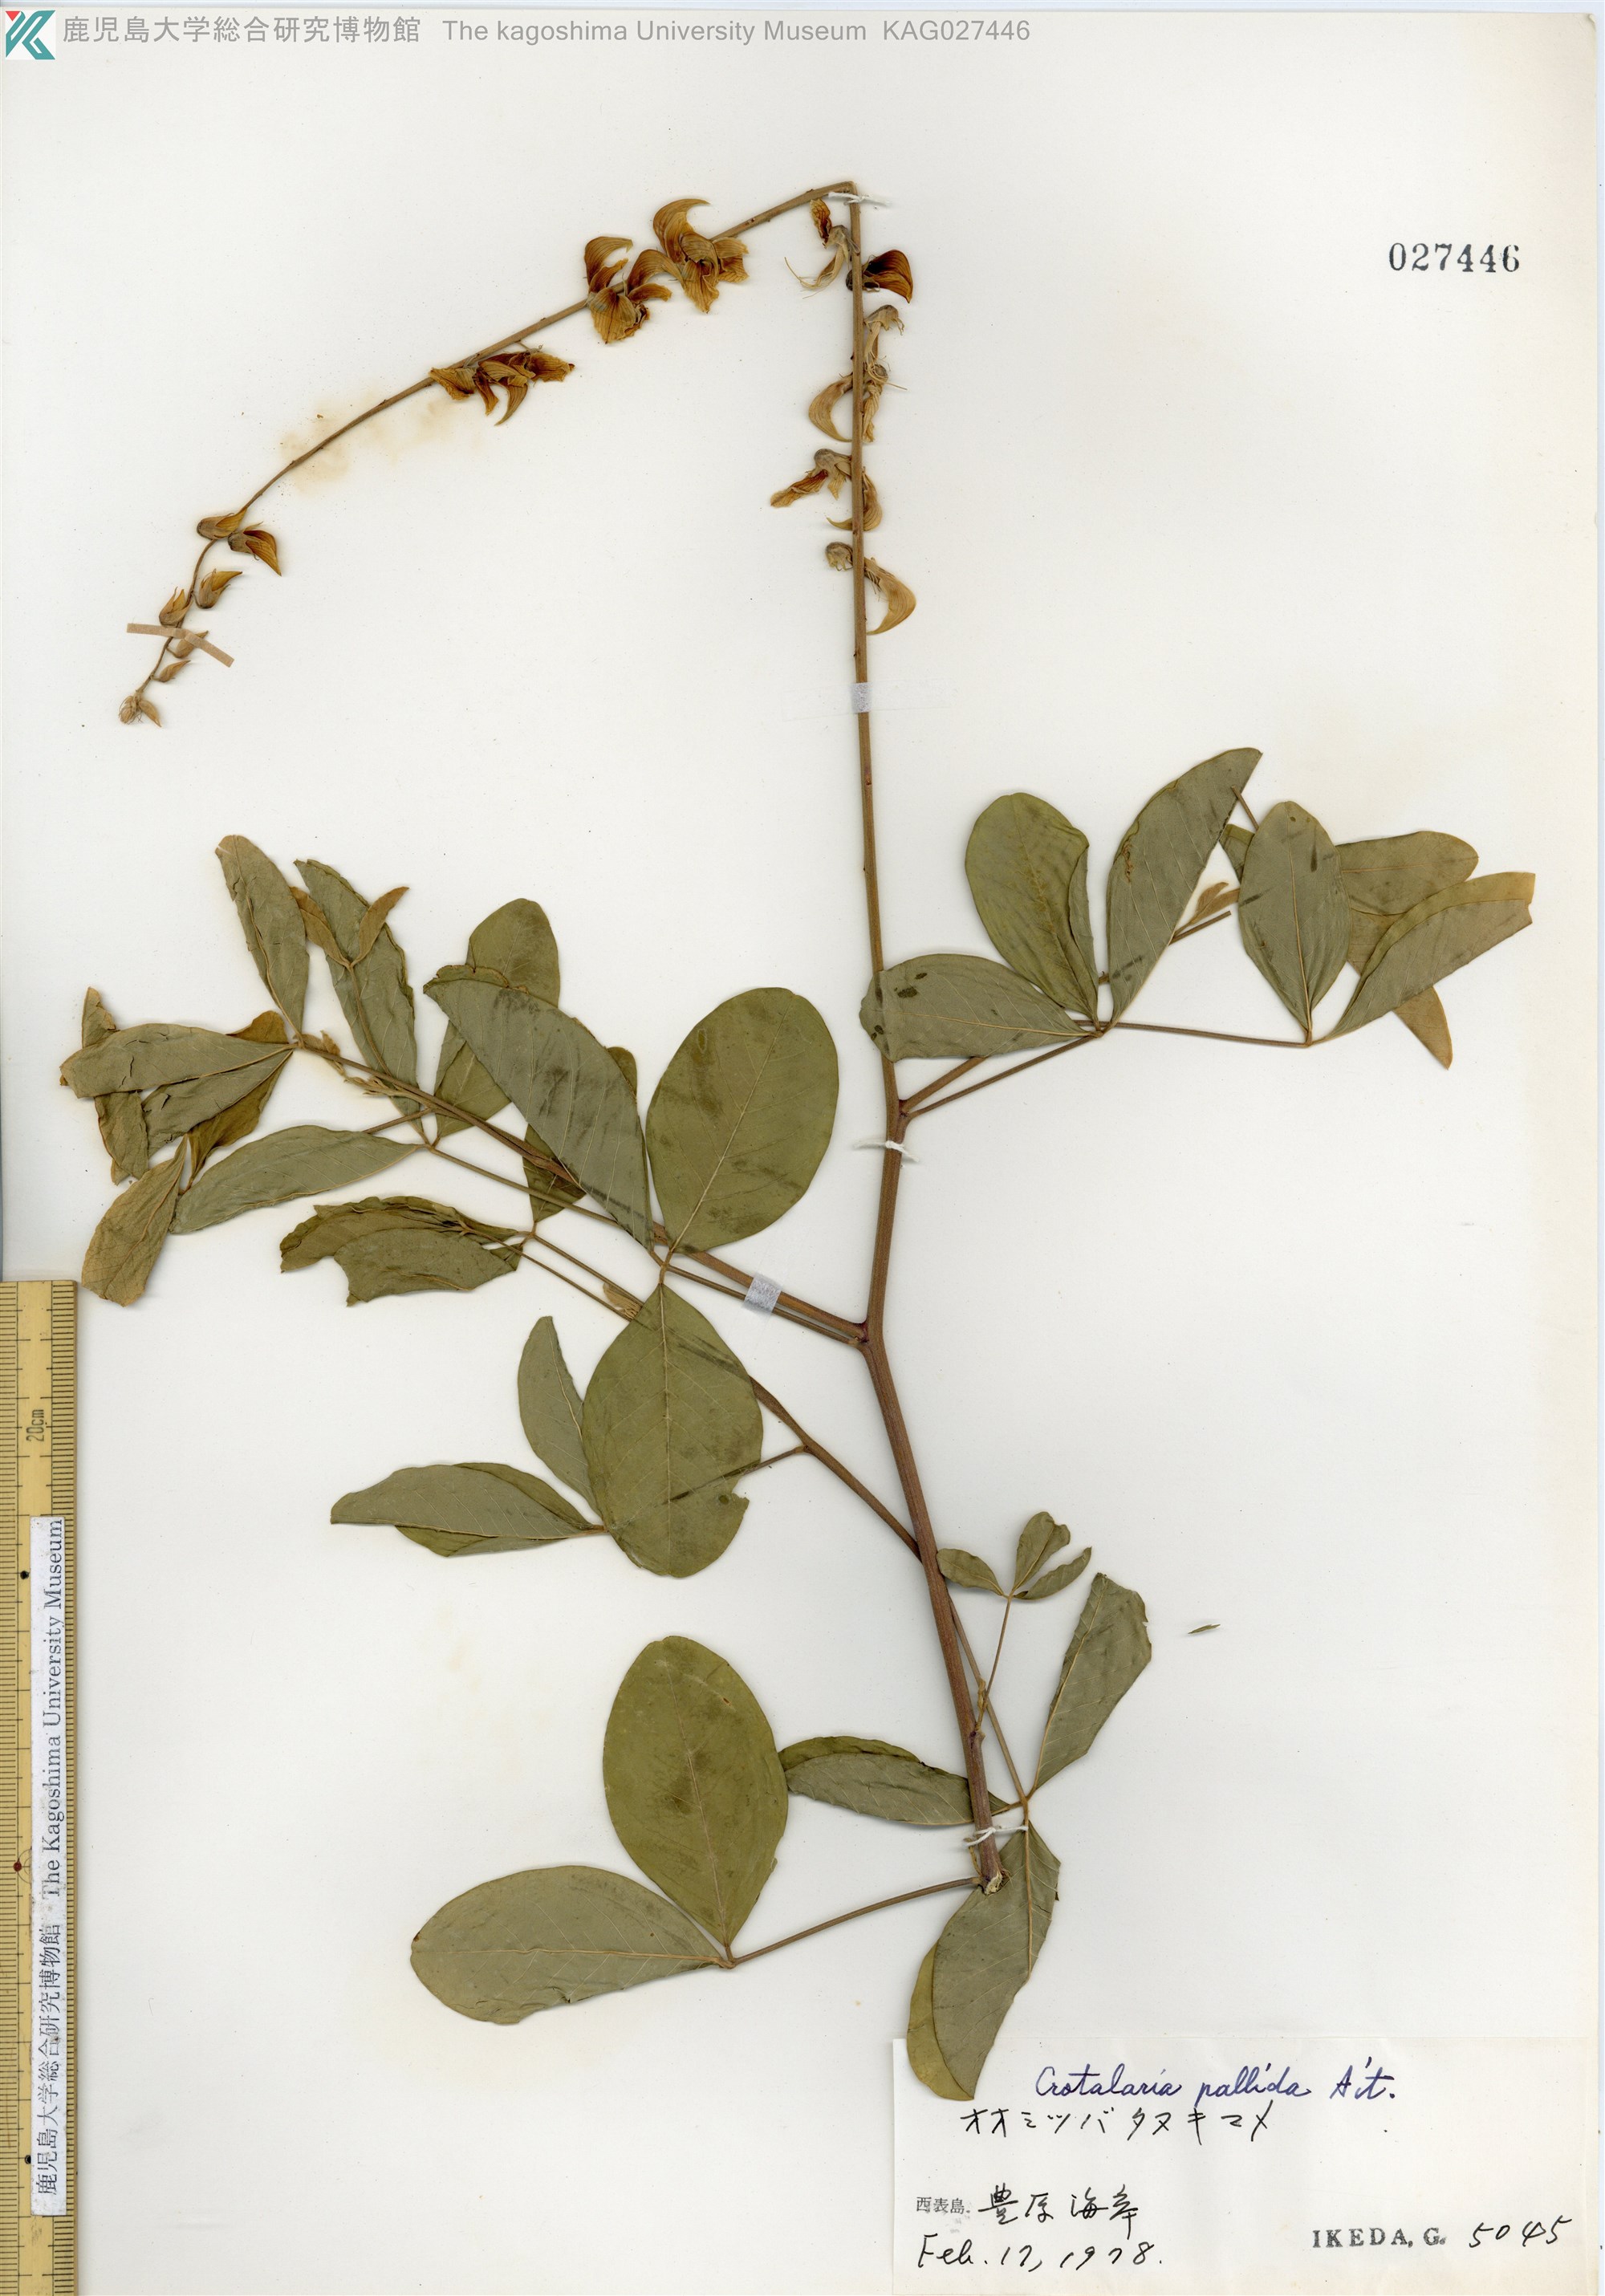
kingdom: Plantae
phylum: Tracheophyta
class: Magnoliopsida
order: Fabales
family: Fabaceae
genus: Crotalaria
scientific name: Crotalaria pallida
